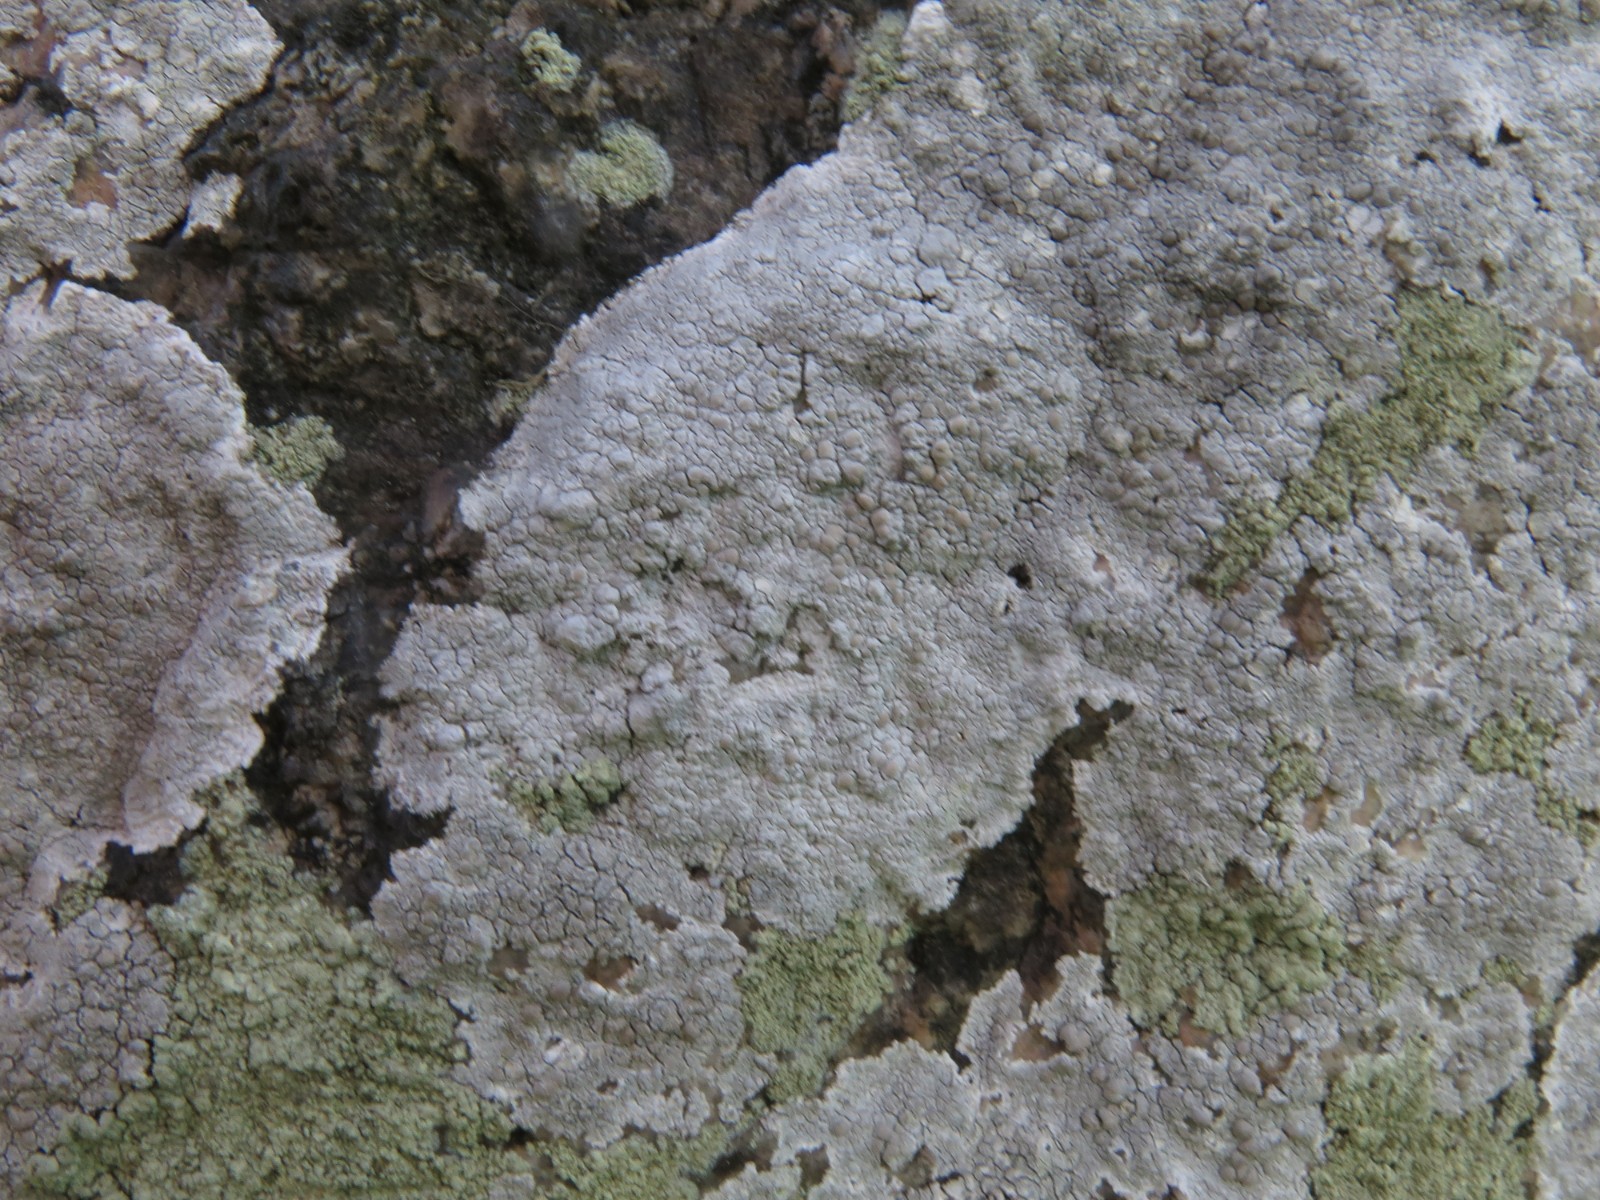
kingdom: Fungi
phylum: Ascomycota
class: Lecanoromycetes
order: Lecanorales
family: Lecanoraceae
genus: Glaucomaria
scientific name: Glaucomaria rupicola
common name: stengærde-kantskivelav
